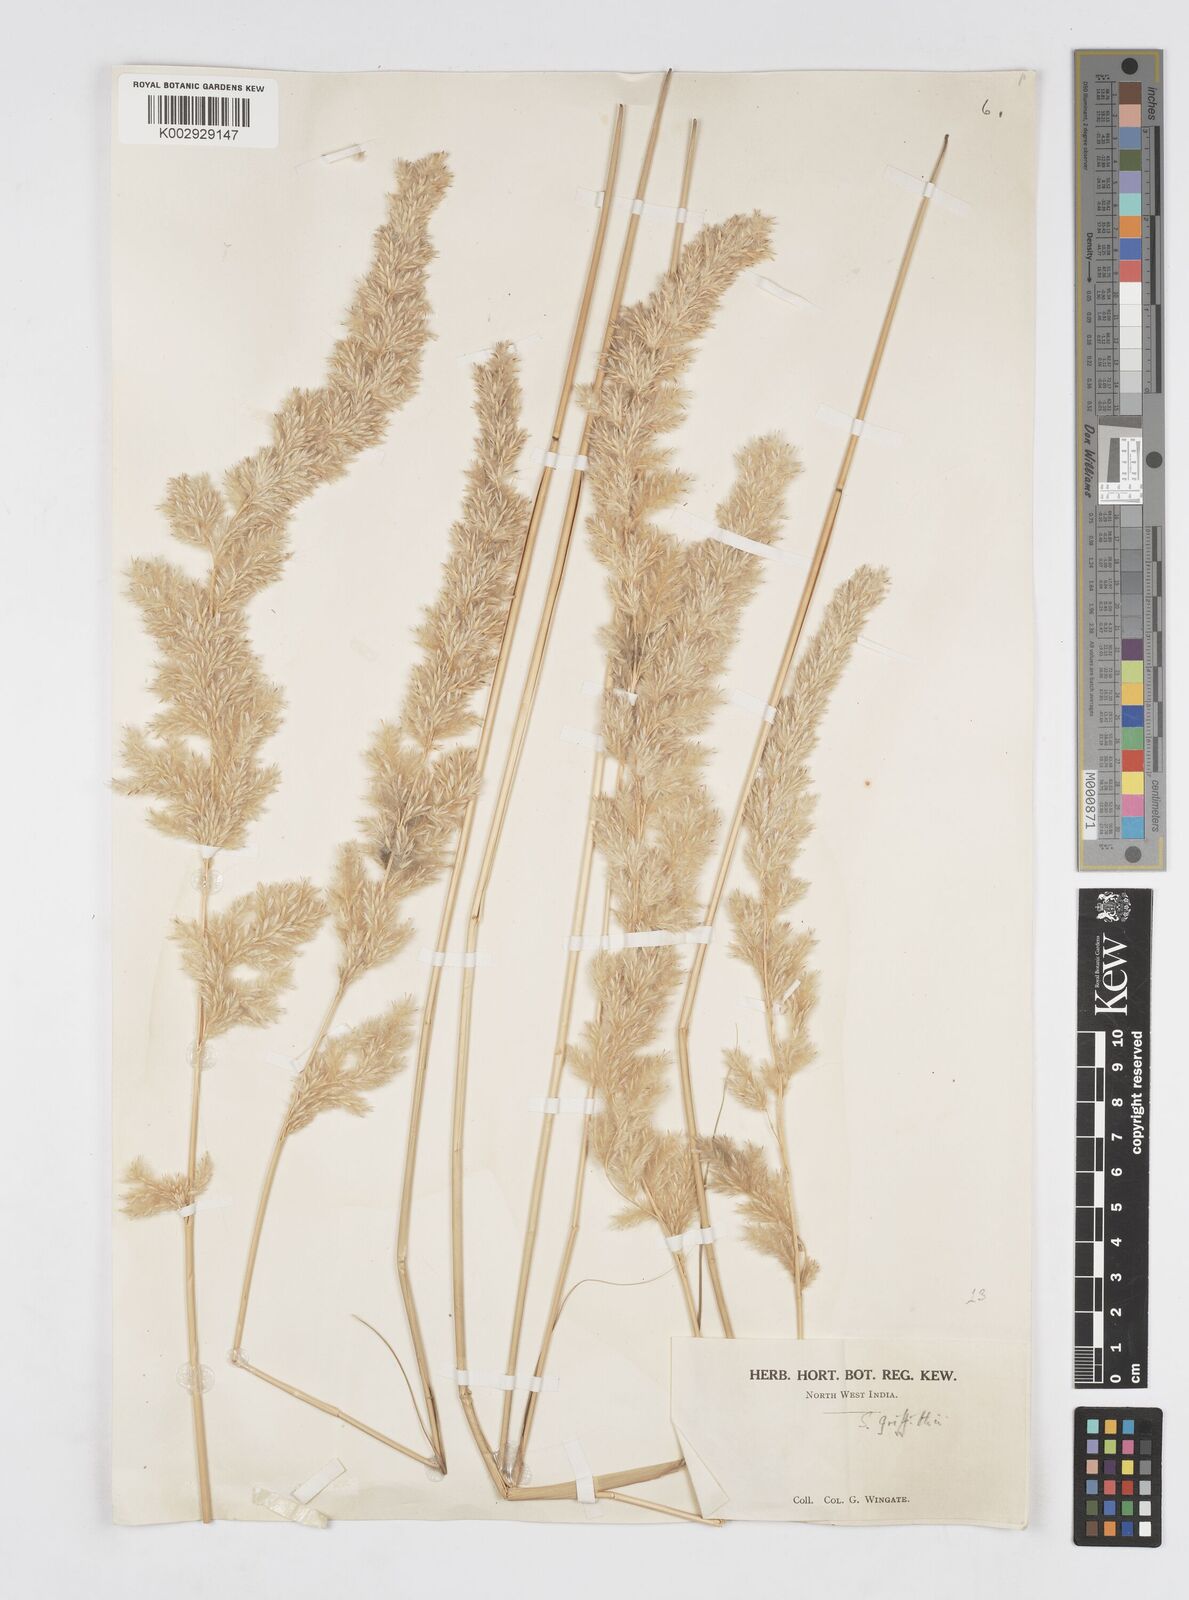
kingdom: Plantae
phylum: Tracheophyta
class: Liliopsida
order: Poales
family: Poaceae
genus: Saccharum
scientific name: Saccharum griffithii
